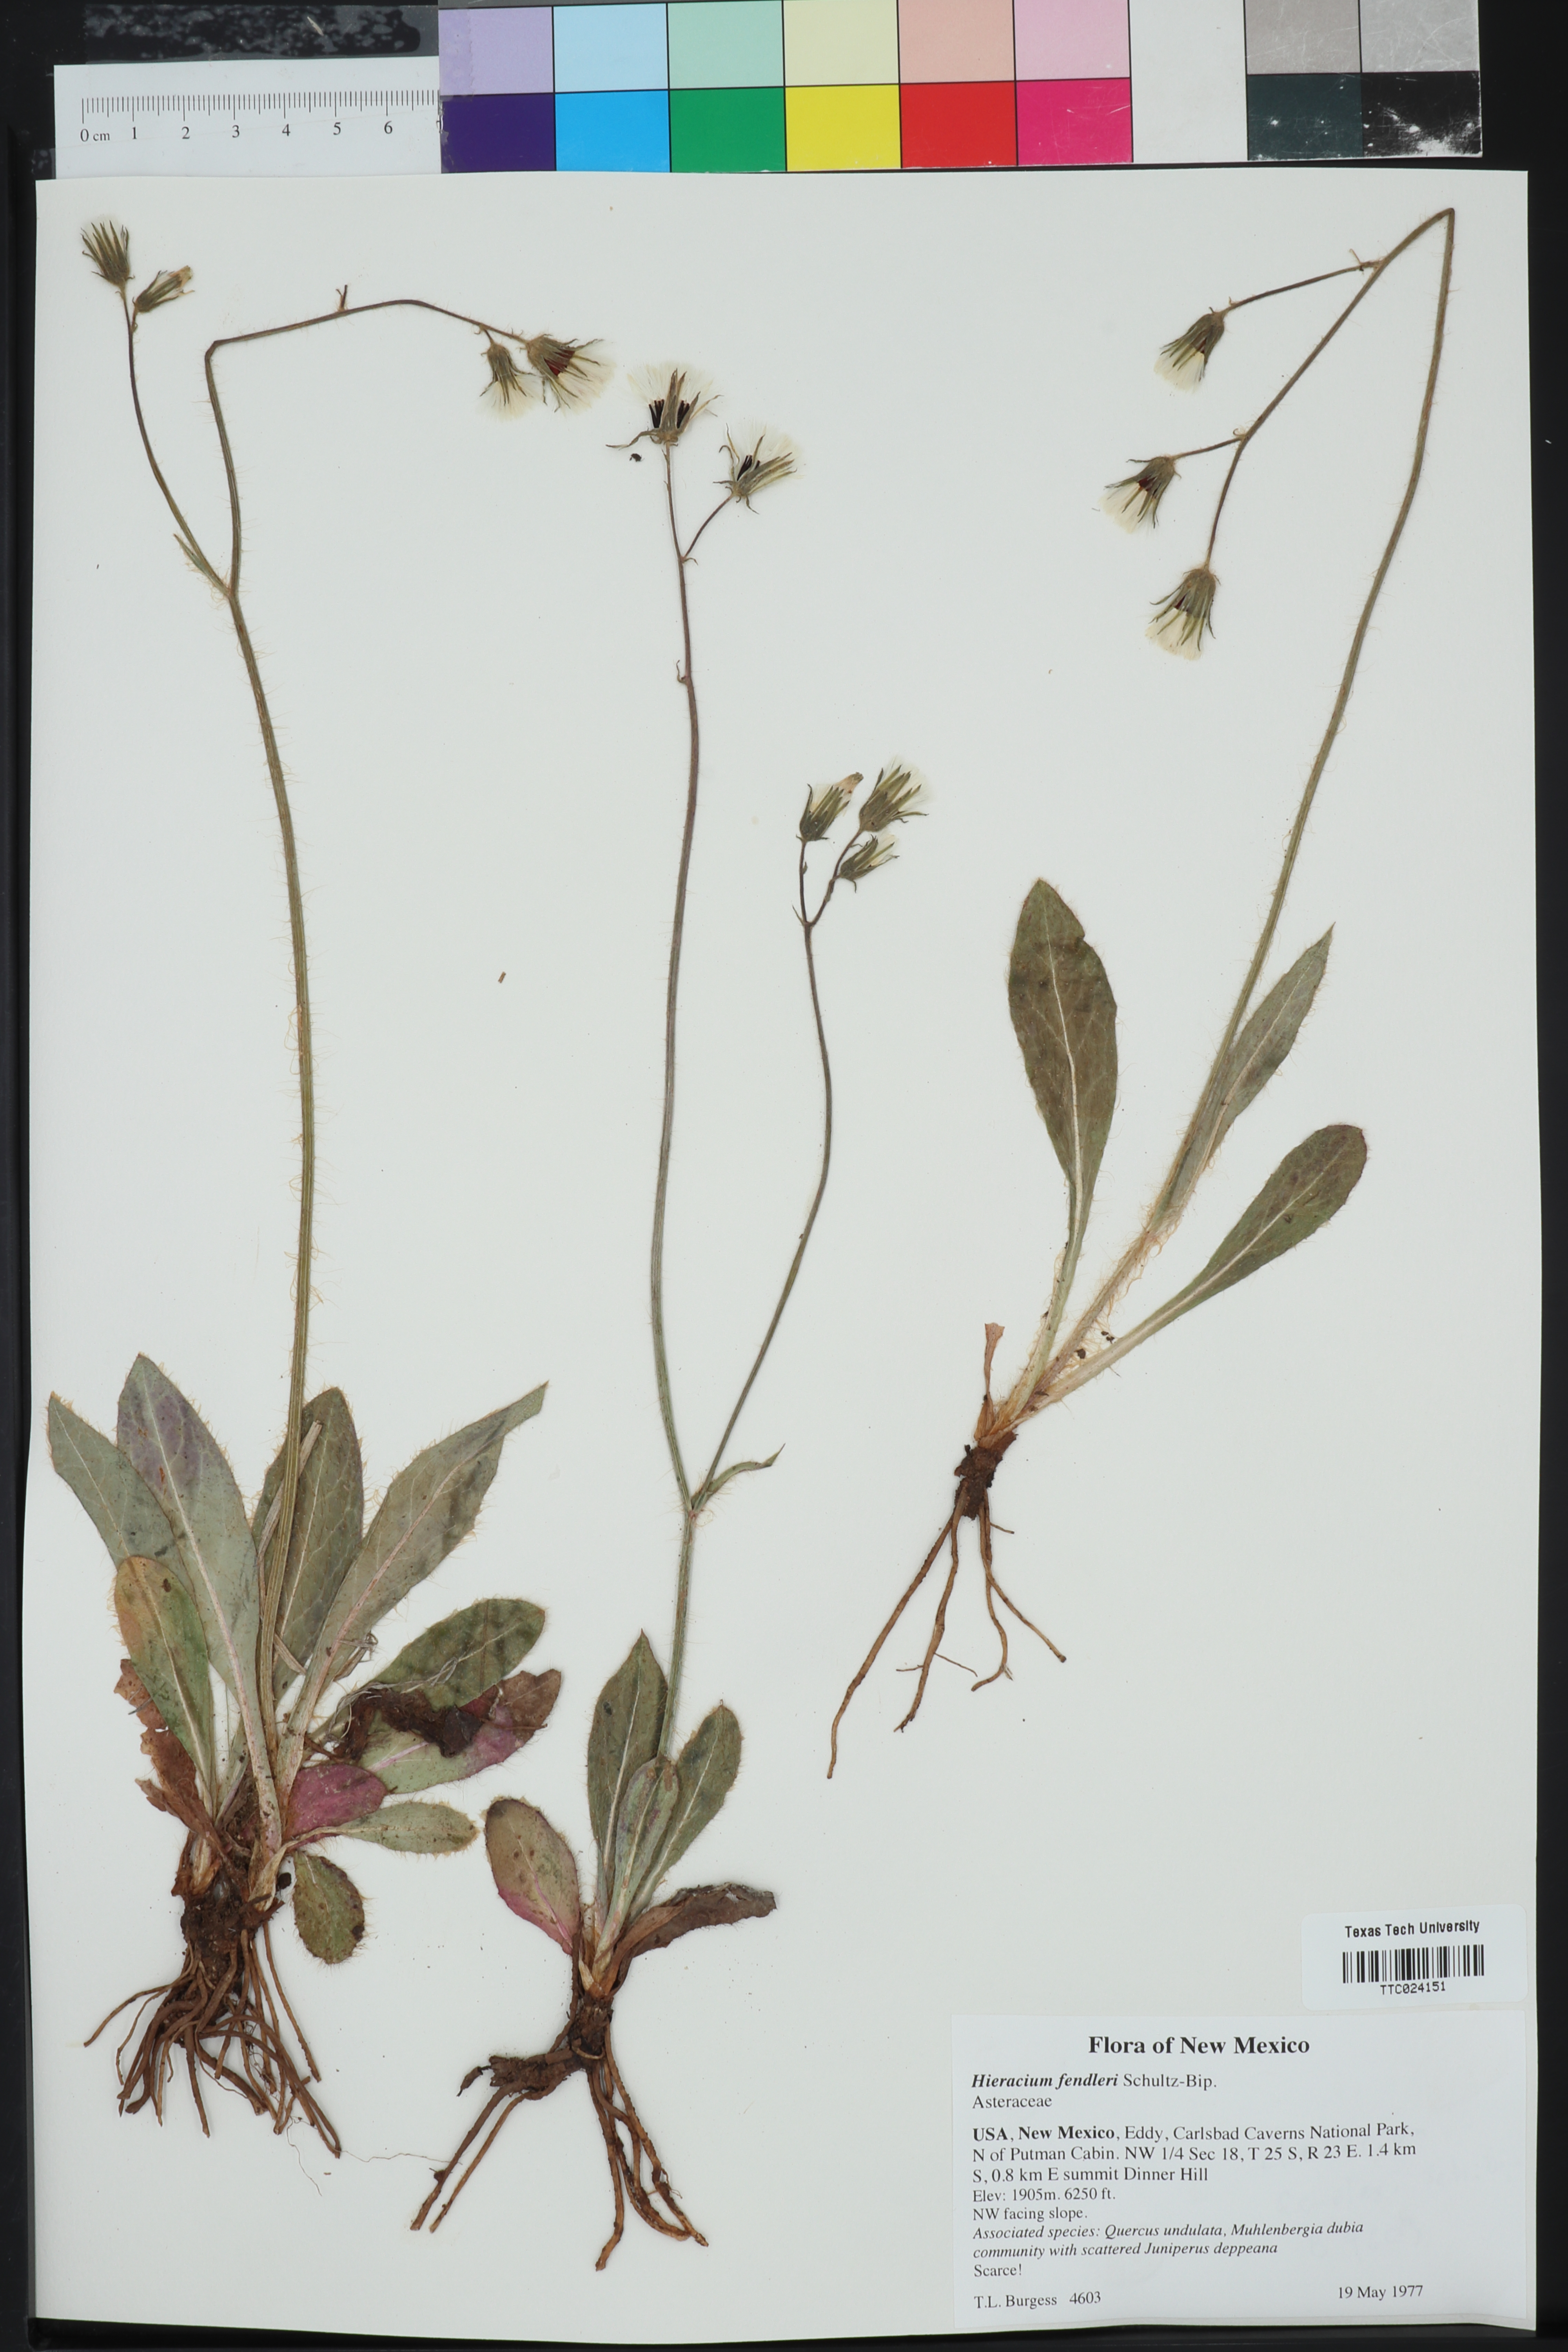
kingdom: Plantae
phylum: Tracheophyta
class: Magnoliopsida
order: Asterales
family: Asteraceae
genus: Hieracium
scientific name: Hieracium fendleri
